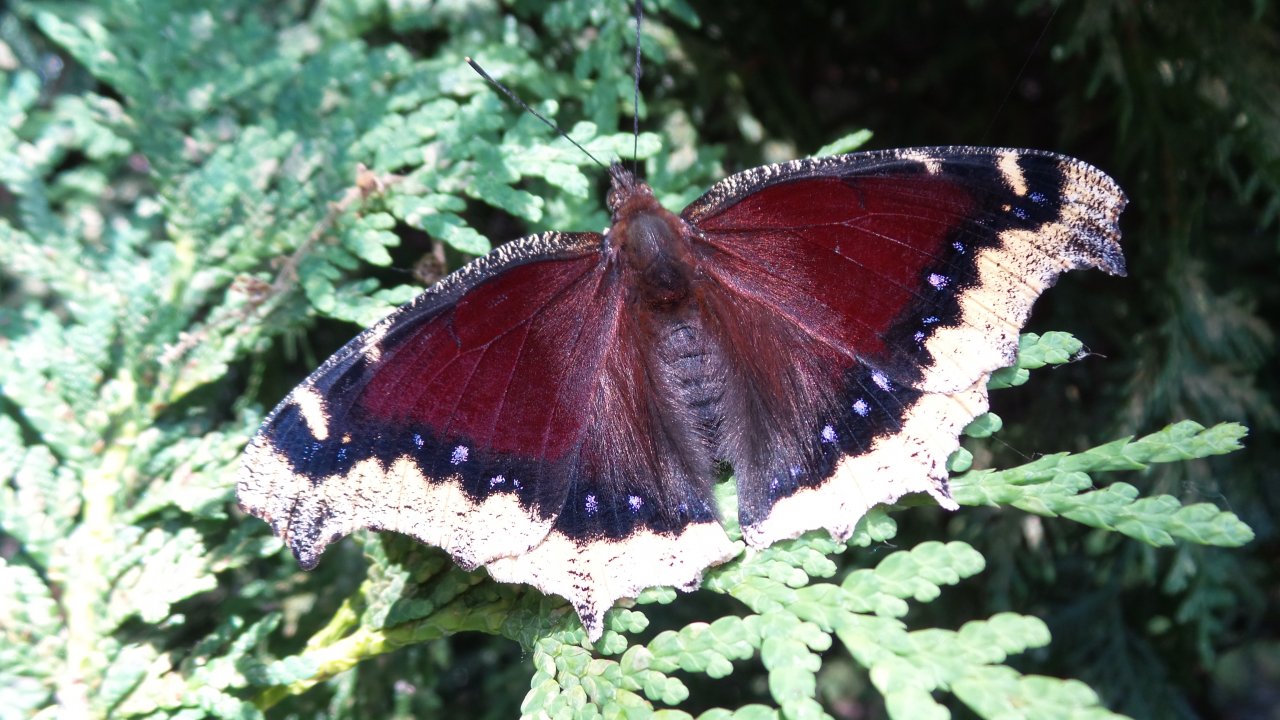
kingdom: Animalia
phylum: Arthropoda
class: Insecta
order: Lepidoptera
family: Nymphalidae
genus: Nymphalis
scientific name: Nymphalis antiopa
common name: Mourning Cloak
